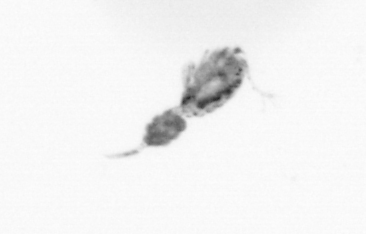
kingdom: Animalia
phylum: Arthropoda
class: Copepoda
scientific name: Copepoda
